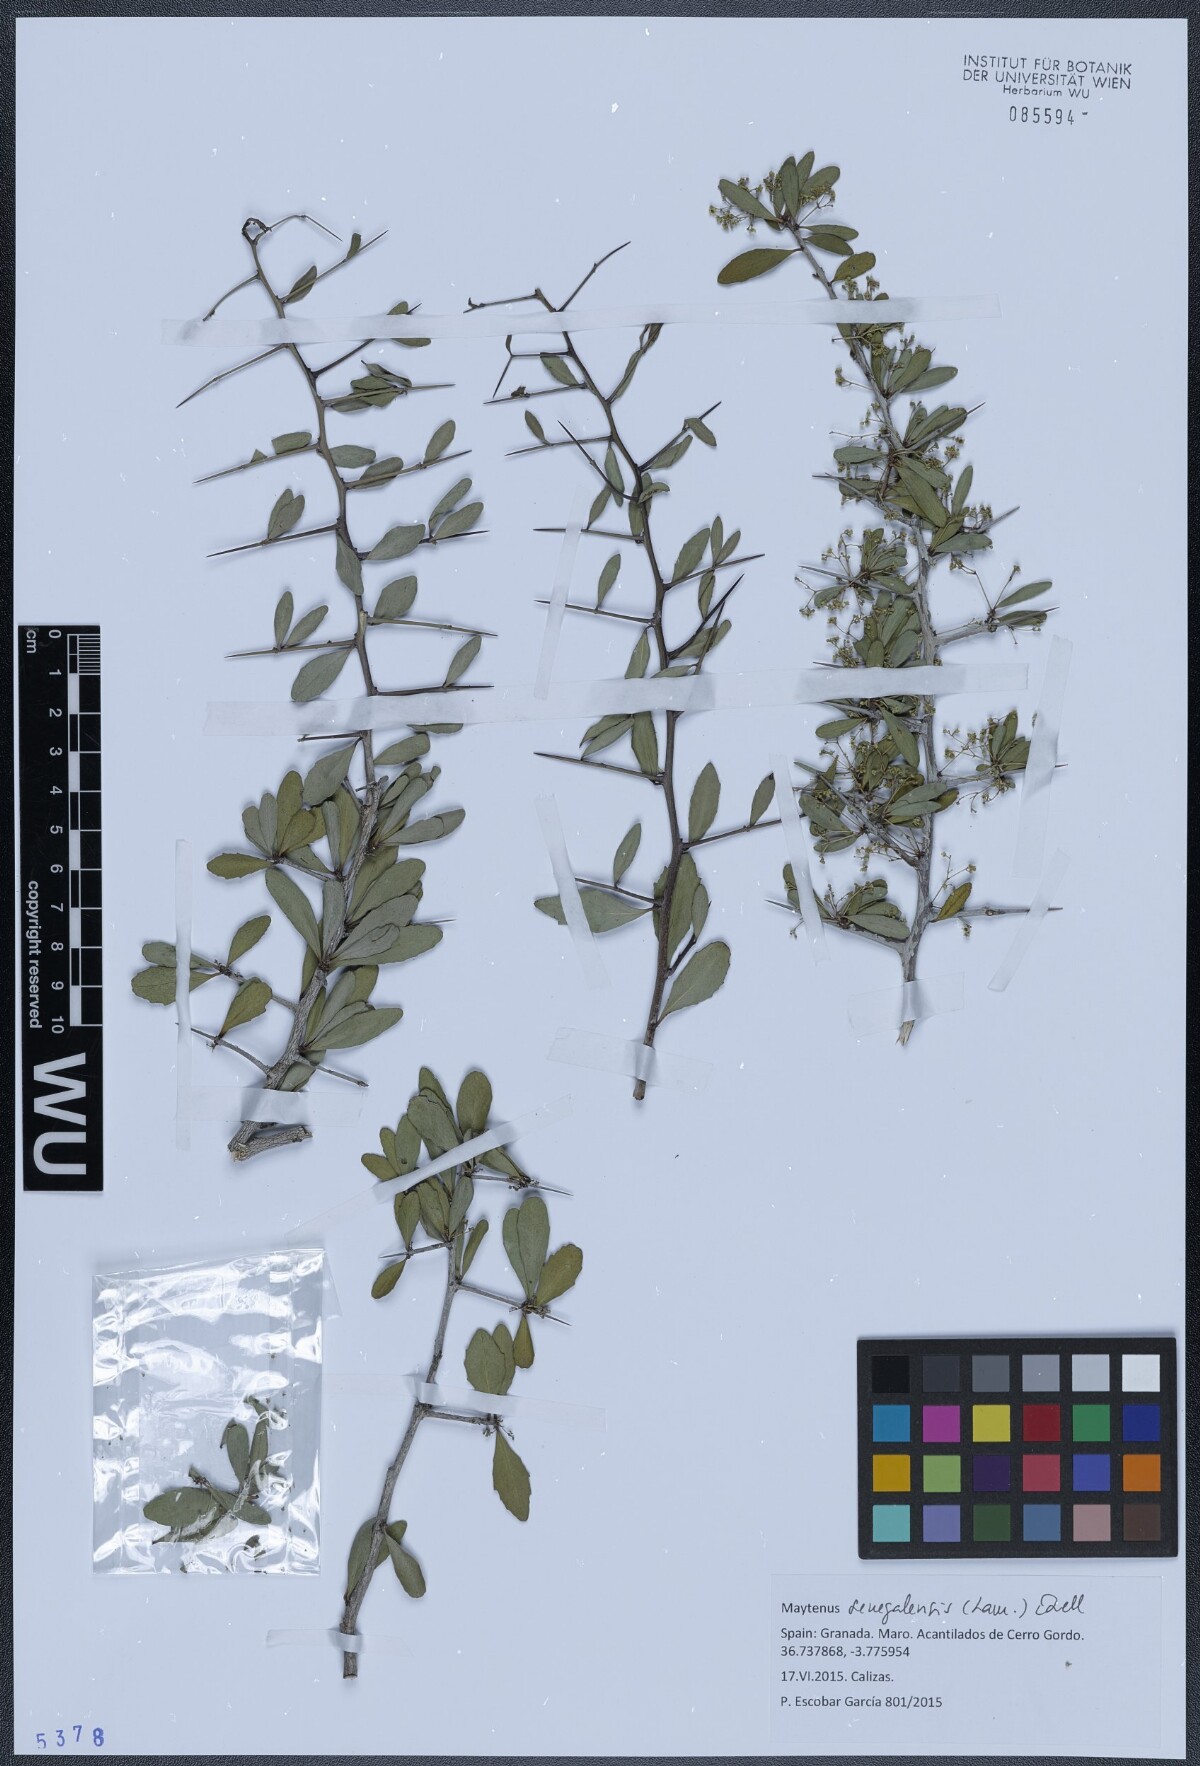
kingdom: Plantae
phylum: Tracheophyta
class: Magnoliopsida
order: Celastrales
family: Celastraceae
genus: Gymnosporia
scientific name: Gymnosporia senegalensis
